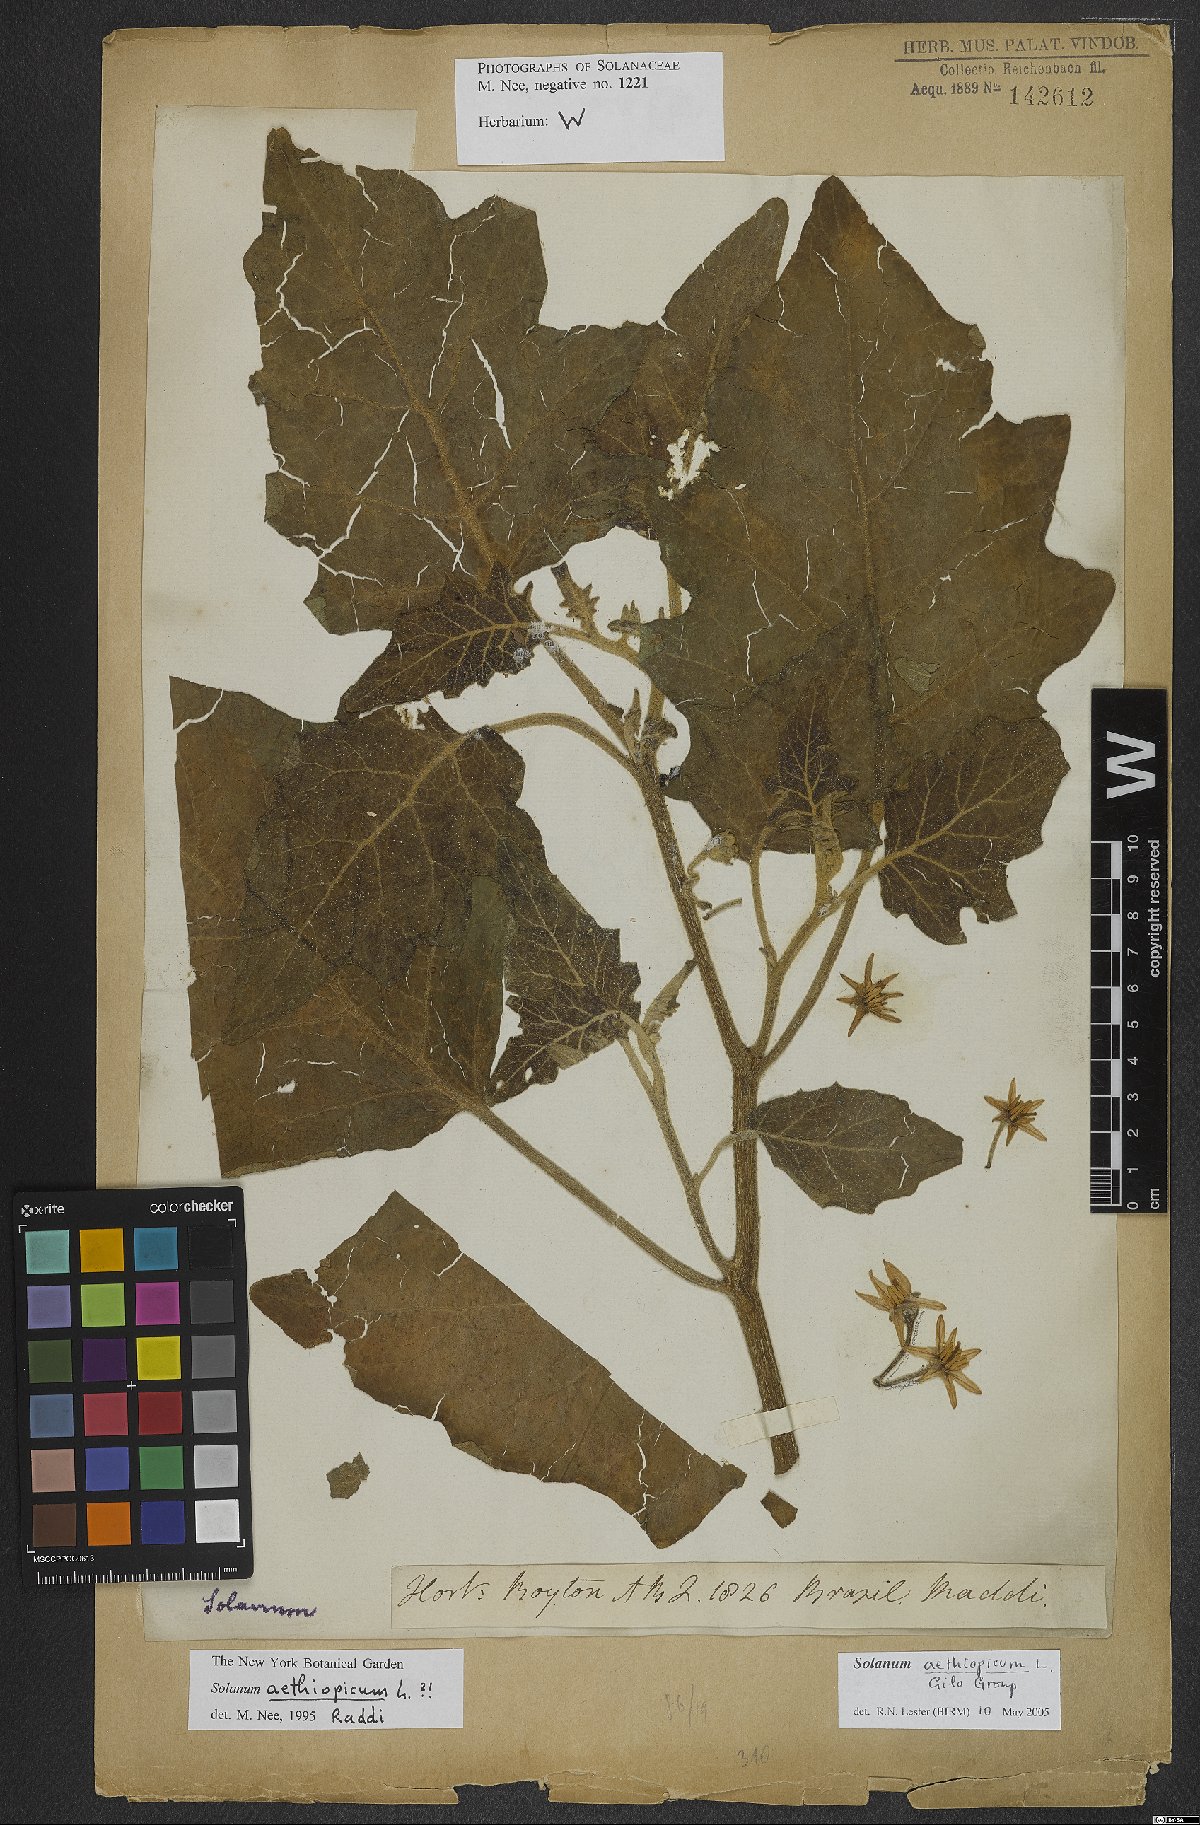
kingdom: Plantae
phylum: Tracheophyta
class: Magnoliopsida
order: Solanales
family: Solanaceae
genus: Solanum
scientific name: Solanum aethiopicum
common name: Gilo
